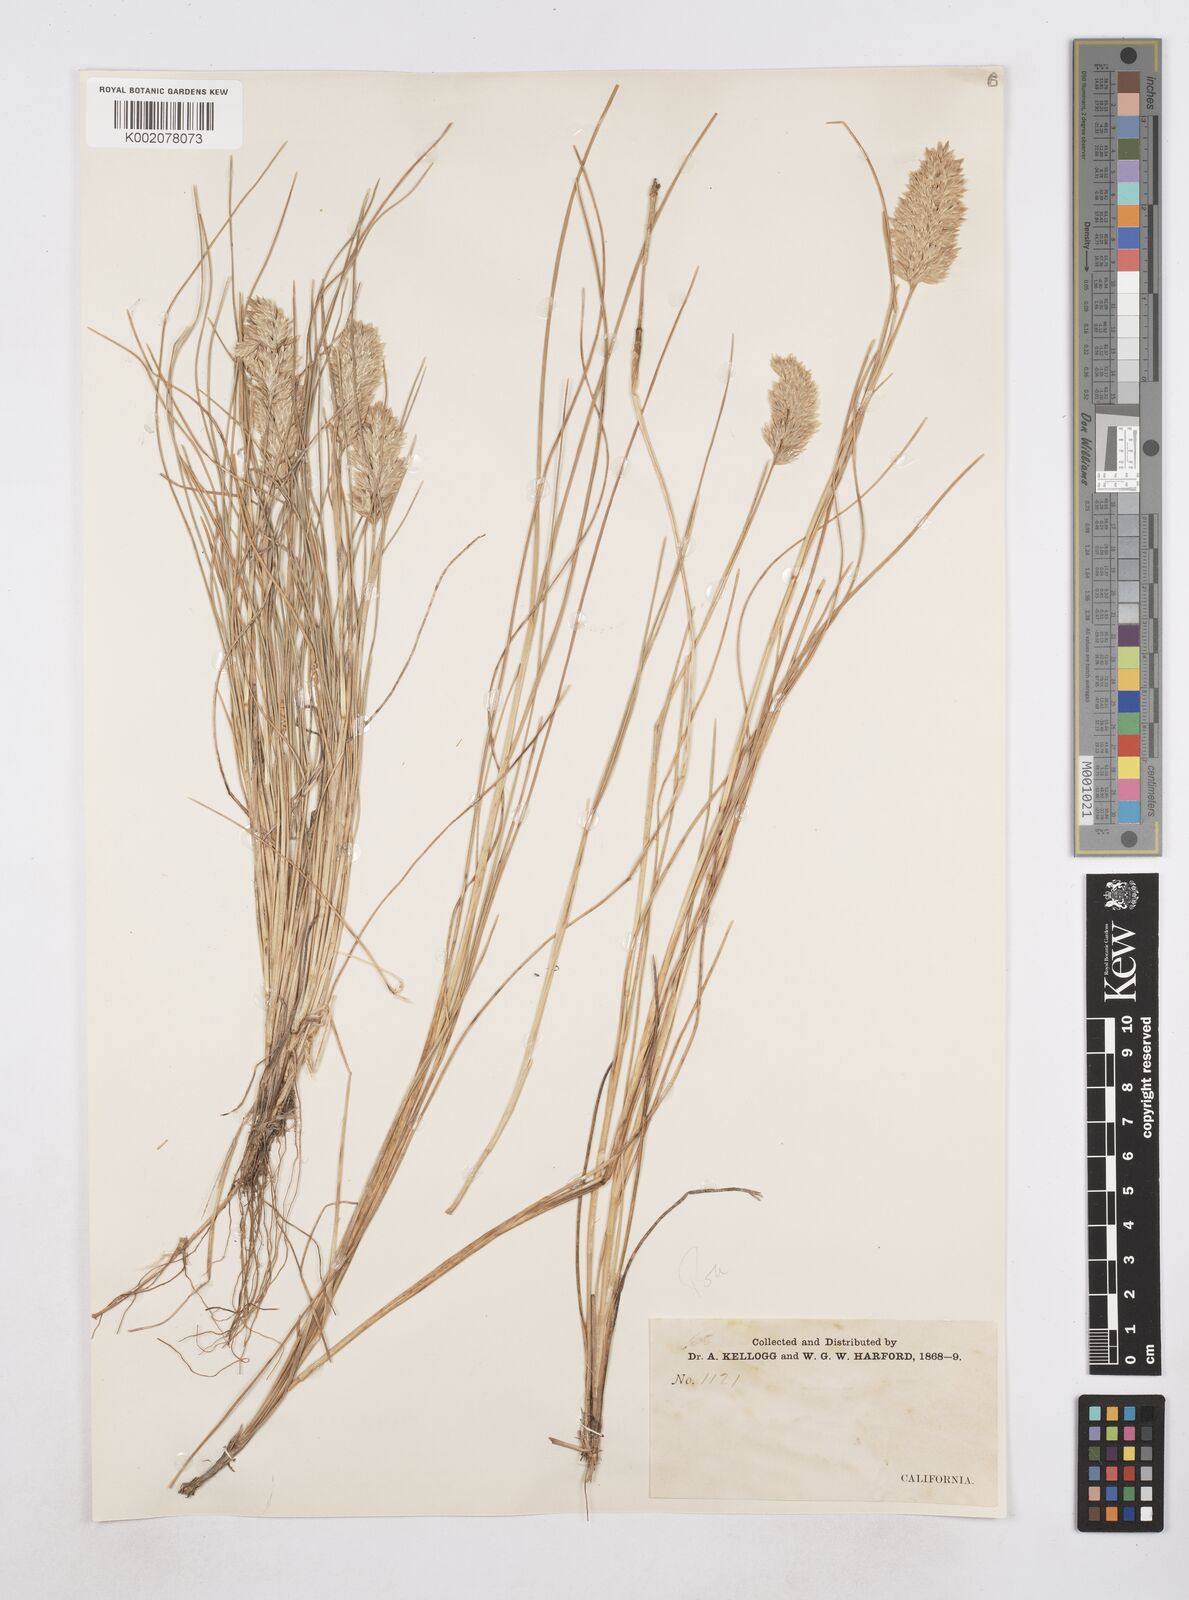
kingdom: Plantae
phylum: Tracheophyta
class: Liliopsida
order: Poales
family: Poaceae
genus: Poa
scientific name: Poa
